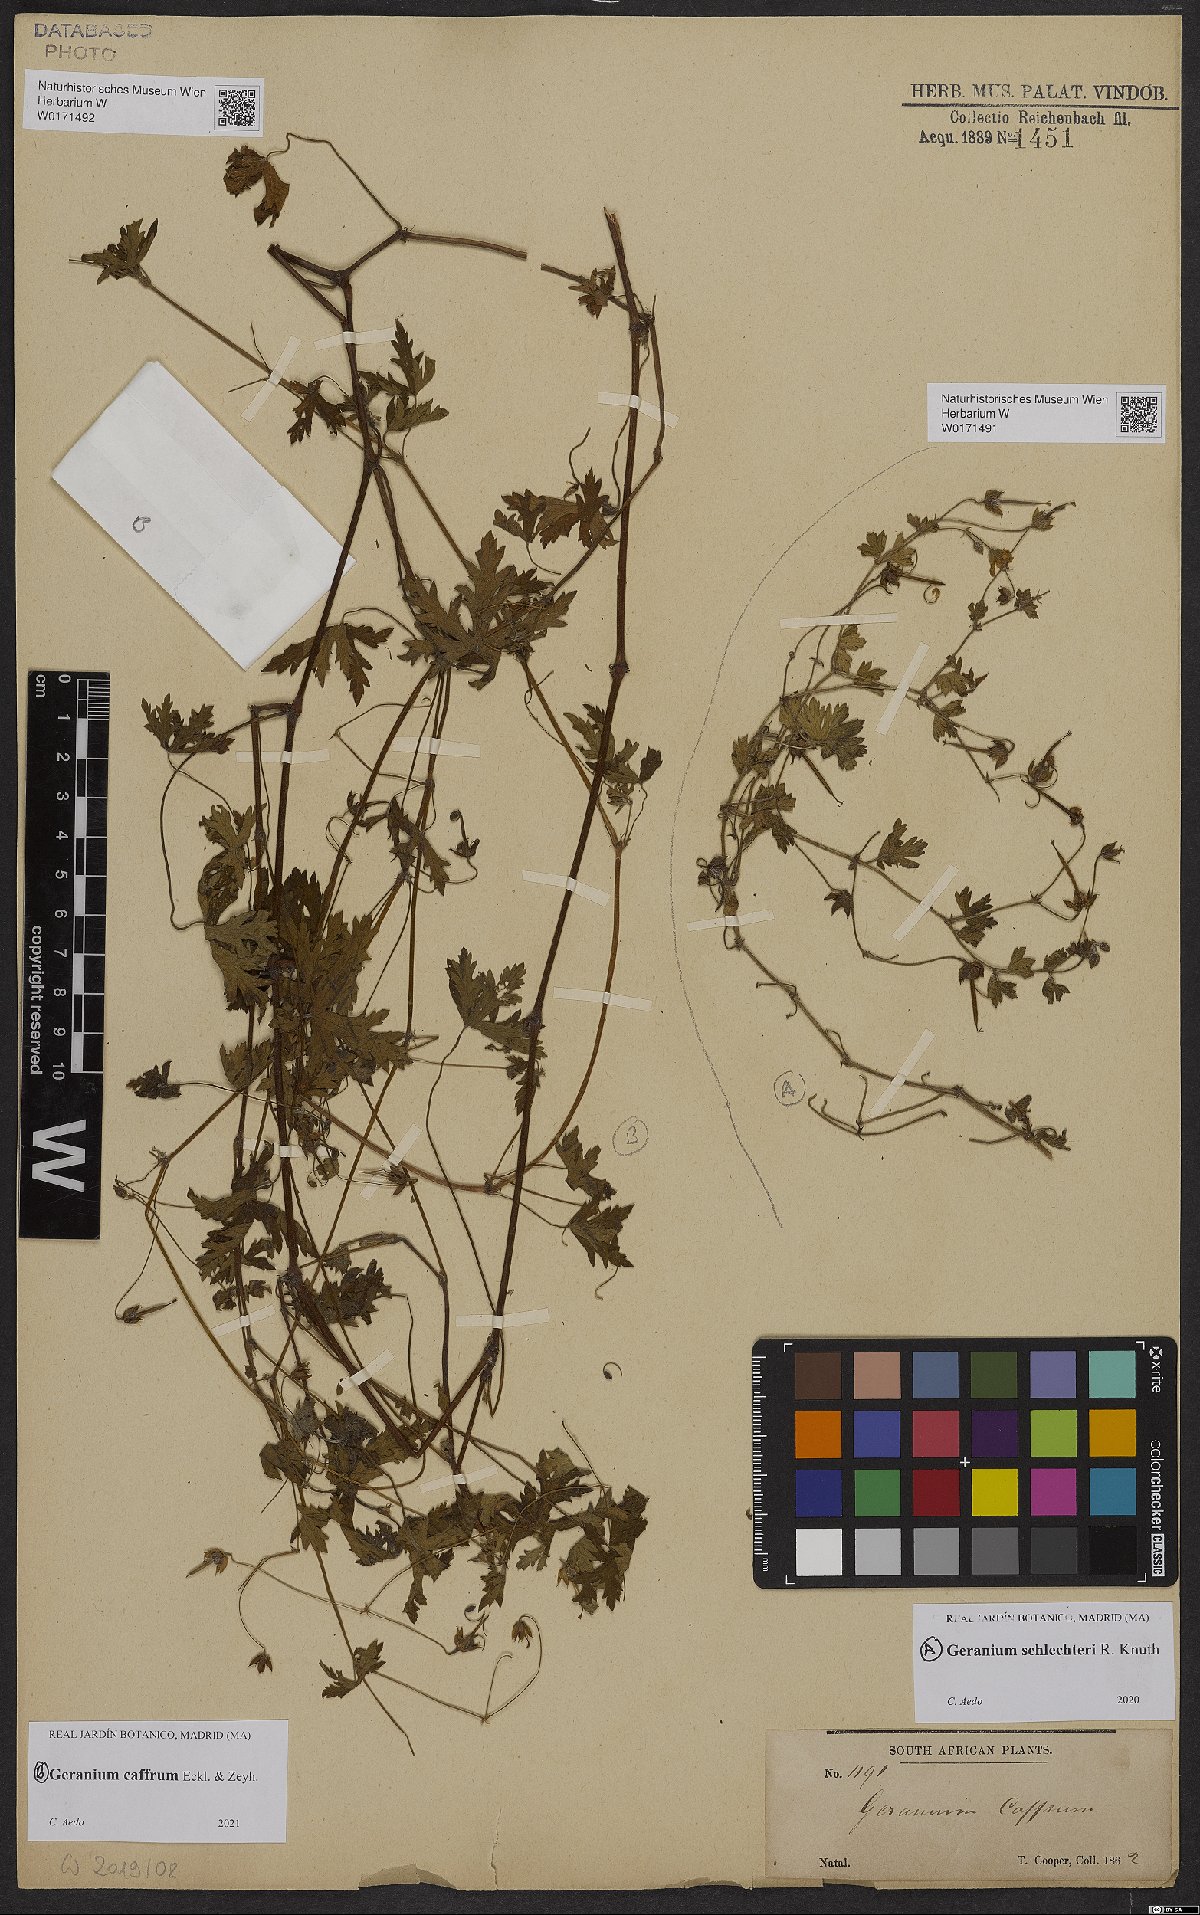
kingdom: Plantae
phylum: Tracheophyta
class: Magnoliopsida
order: Geraniales
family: Geraniaceae
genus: Geranium
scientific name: Geranium schlechteri
